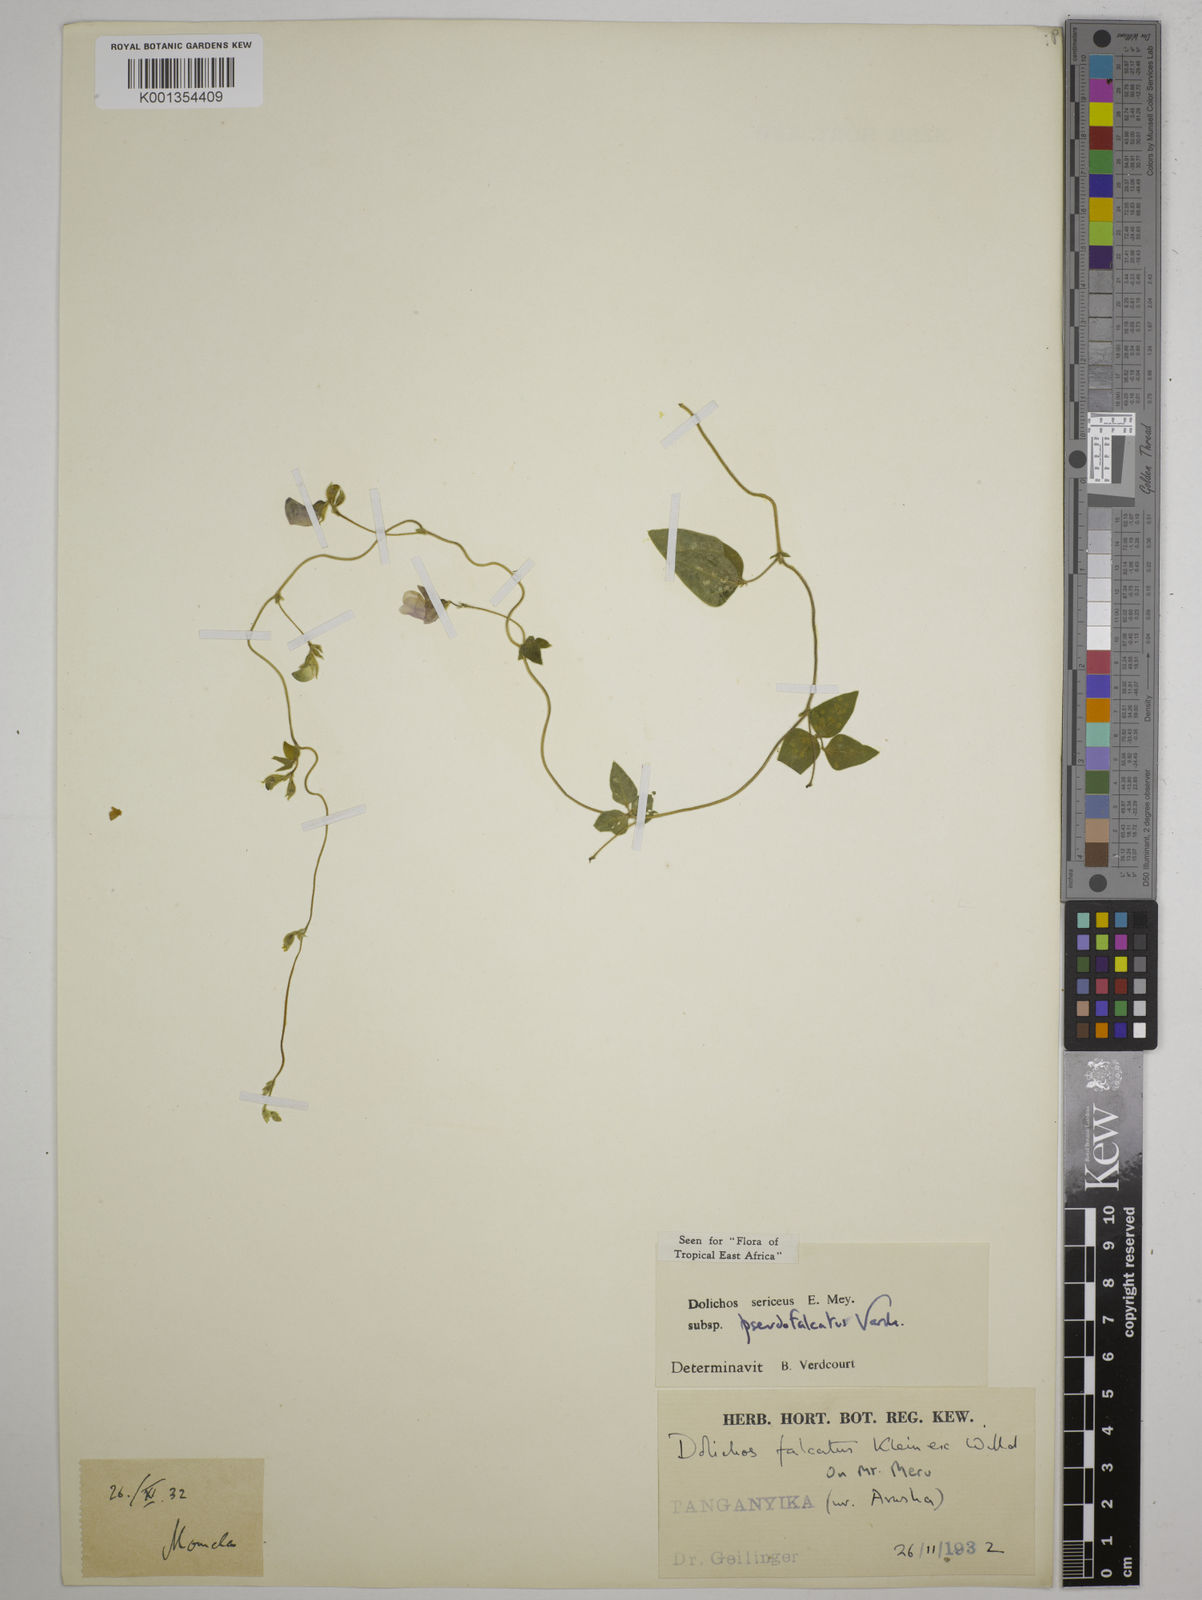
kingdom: Plantae
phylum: Tracheophyta
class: Magnoliopsida
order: Fabales
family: Fabaceae
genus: Dolichos
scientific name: Dolichos
